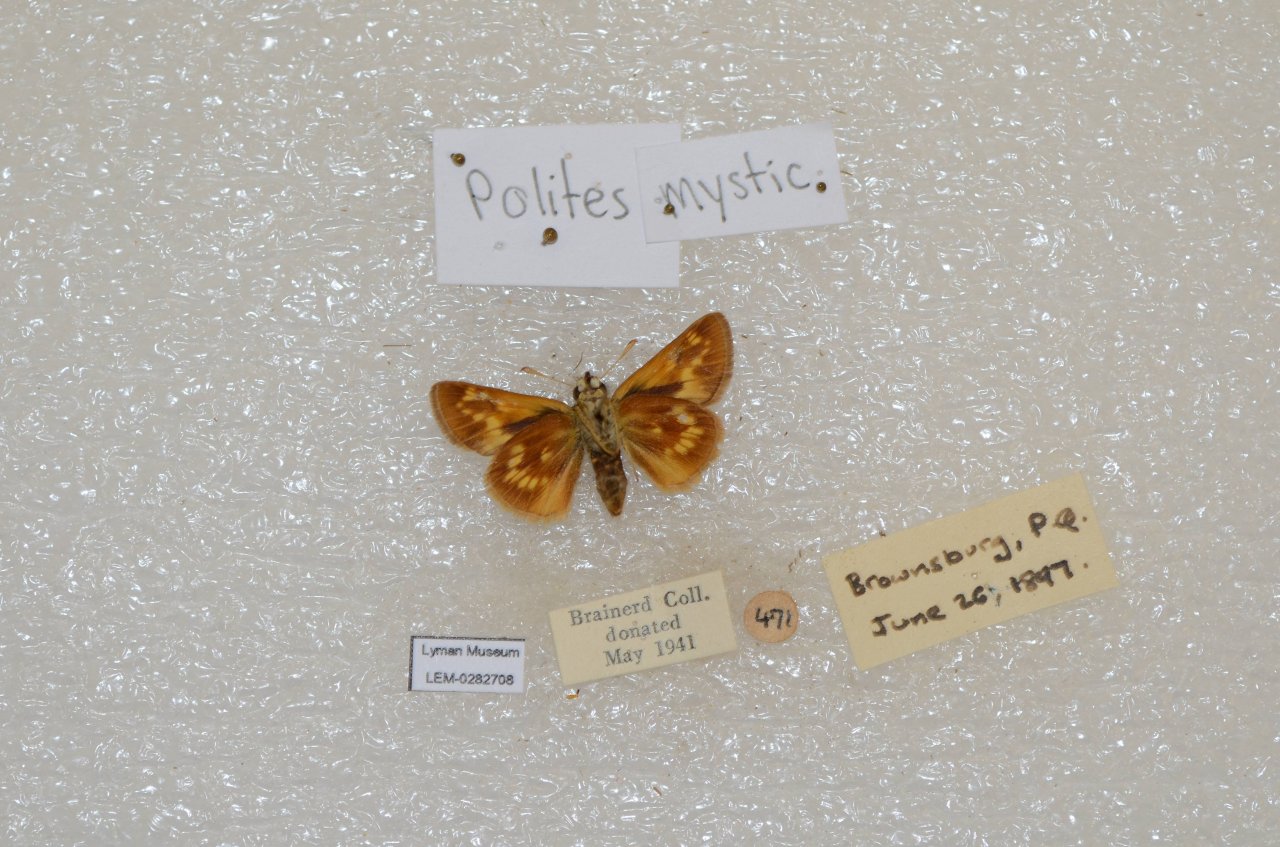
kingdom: Animalia
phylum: Arthropoda
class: Insecta
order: Lepidoptera
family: Hesperiidae
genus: Polites
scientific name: Polites
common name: Long Dash Skipper
